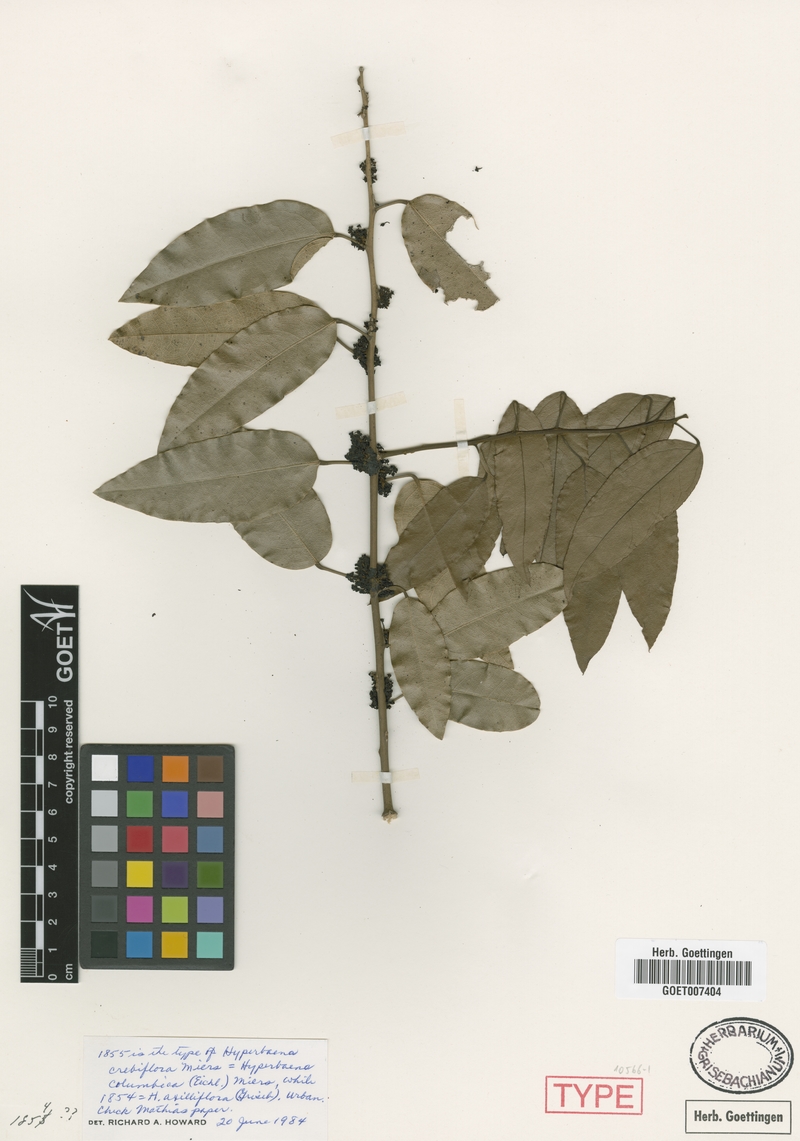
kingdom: Plantae
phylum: Tracheophyta
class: Magnoliopsida
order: Ranunculales
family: Menispermaceae
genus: Hyperbaena
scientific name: Hyperbaena axilliflora
